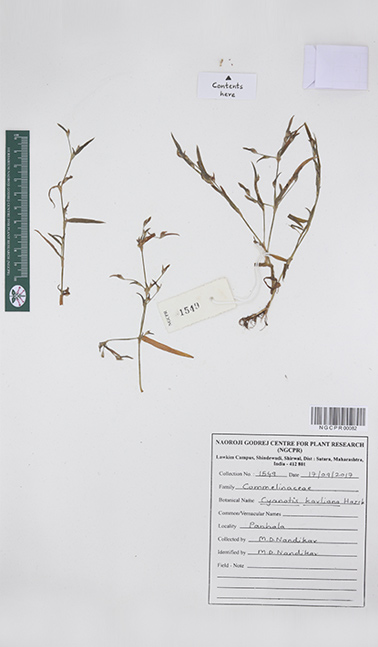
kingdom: Plantae
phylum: Tracheophyta
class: Liliopsida
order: Commelinales
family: Commelinaceae
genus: Cyanotis
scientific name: Cyanotis karliana
